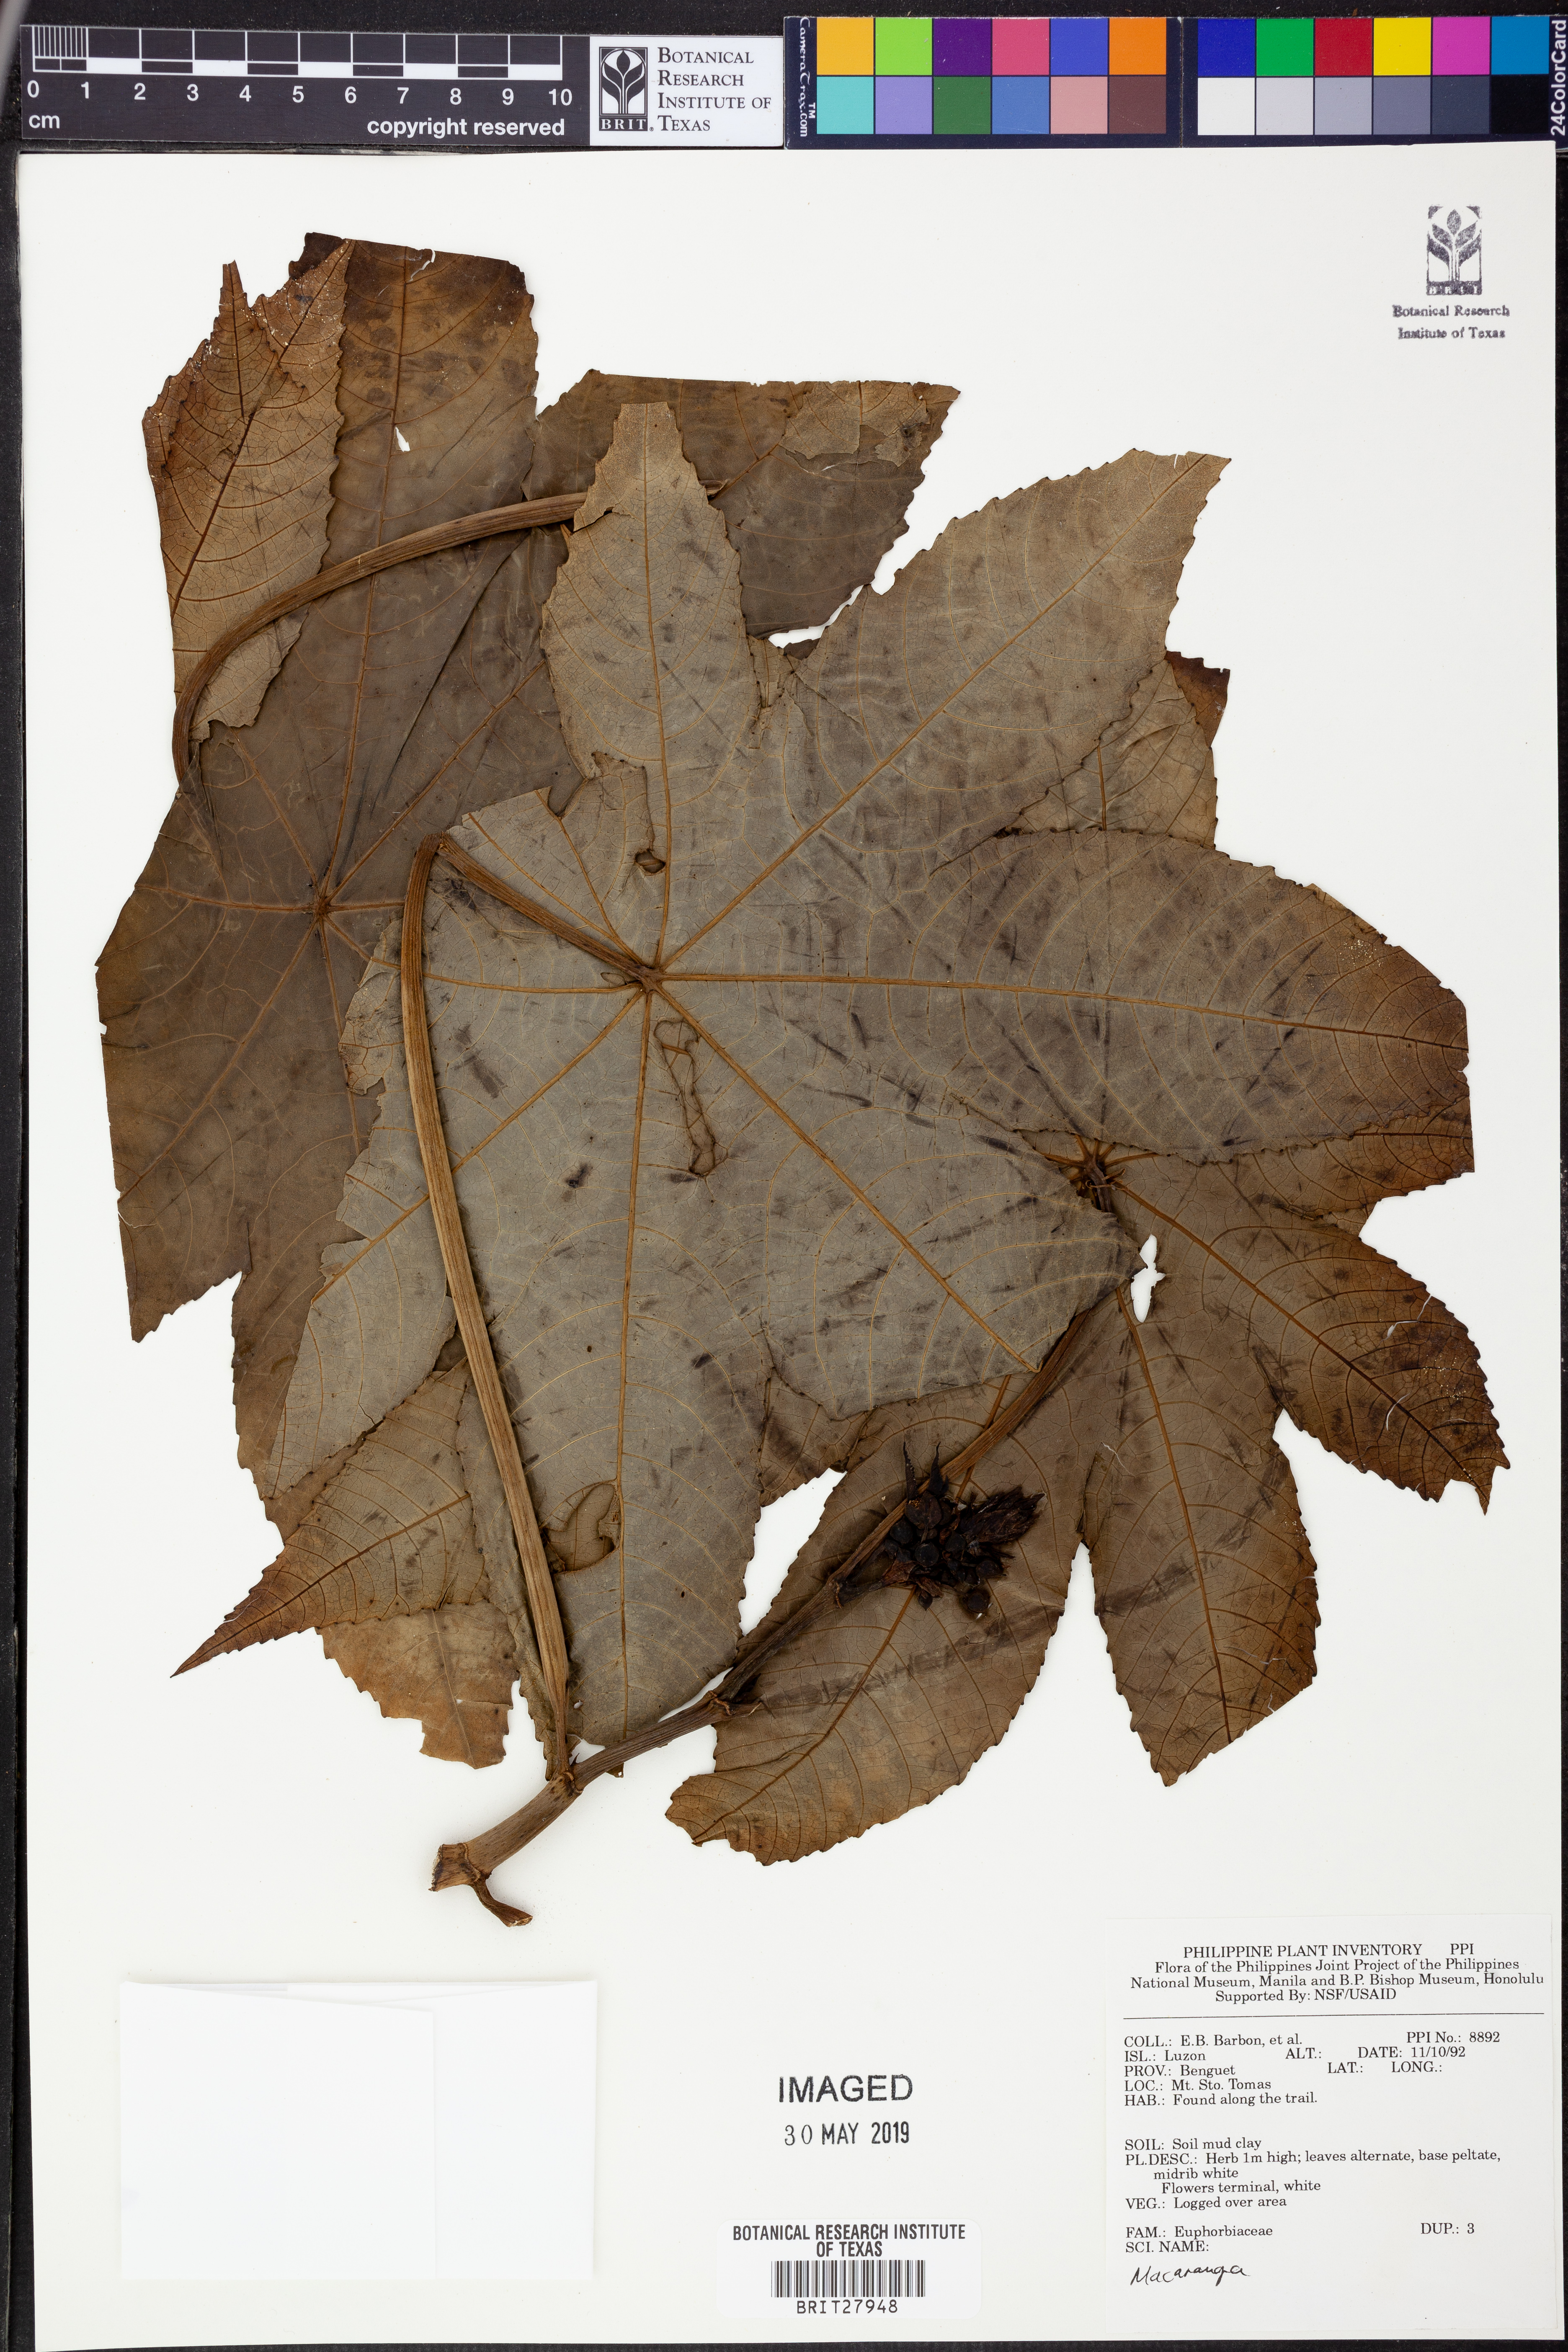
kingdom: Plantae
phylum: Tracheophyta
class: Magnoliopsida
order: Malpighiales
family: Euphorbiaceae
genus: Macaranga
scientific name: Macaranga
